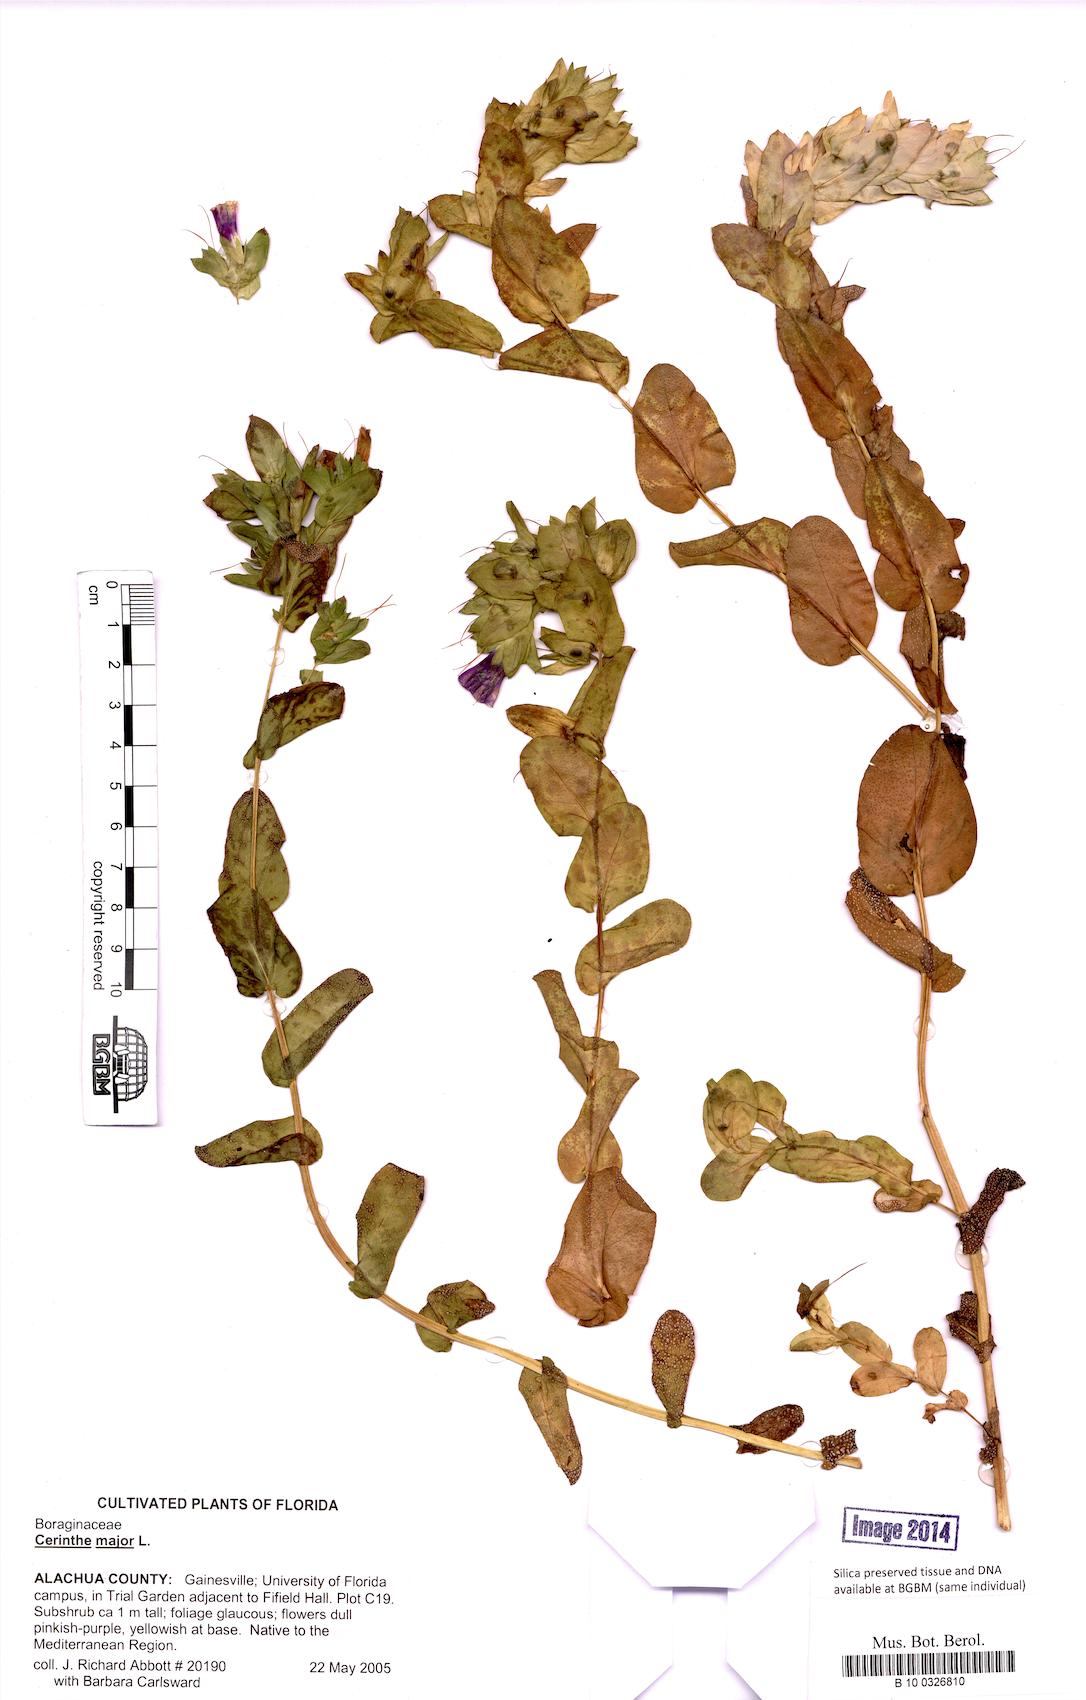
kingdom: Plantae
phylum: Tracheophyta
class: Magnoliopsida
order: Boraginales
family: Boraginaceae
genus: Cerinthe
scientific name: Cerinthe major
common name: Greater honeywort
